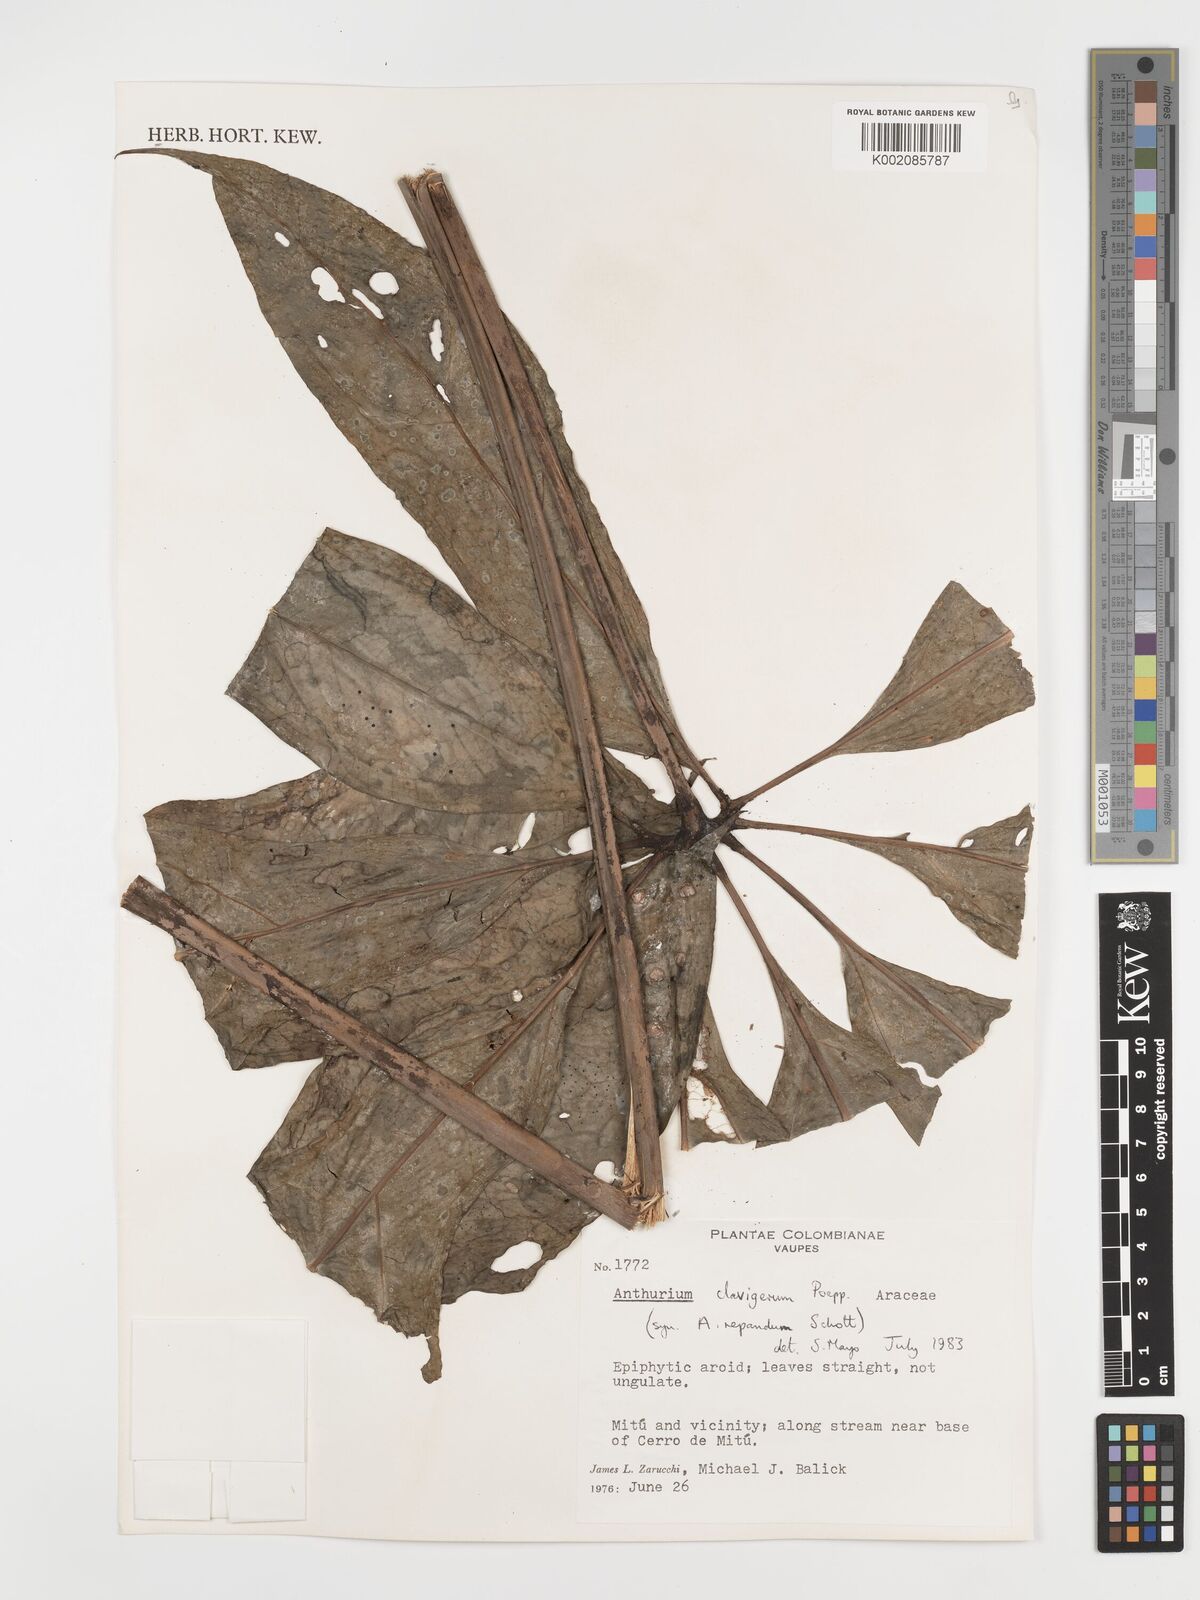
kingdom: Plantae
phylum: Tracheophyta
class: Liliopsida
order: Alismatales
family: Araceae
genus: Anthurium
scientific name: Anthurium clavigerum
